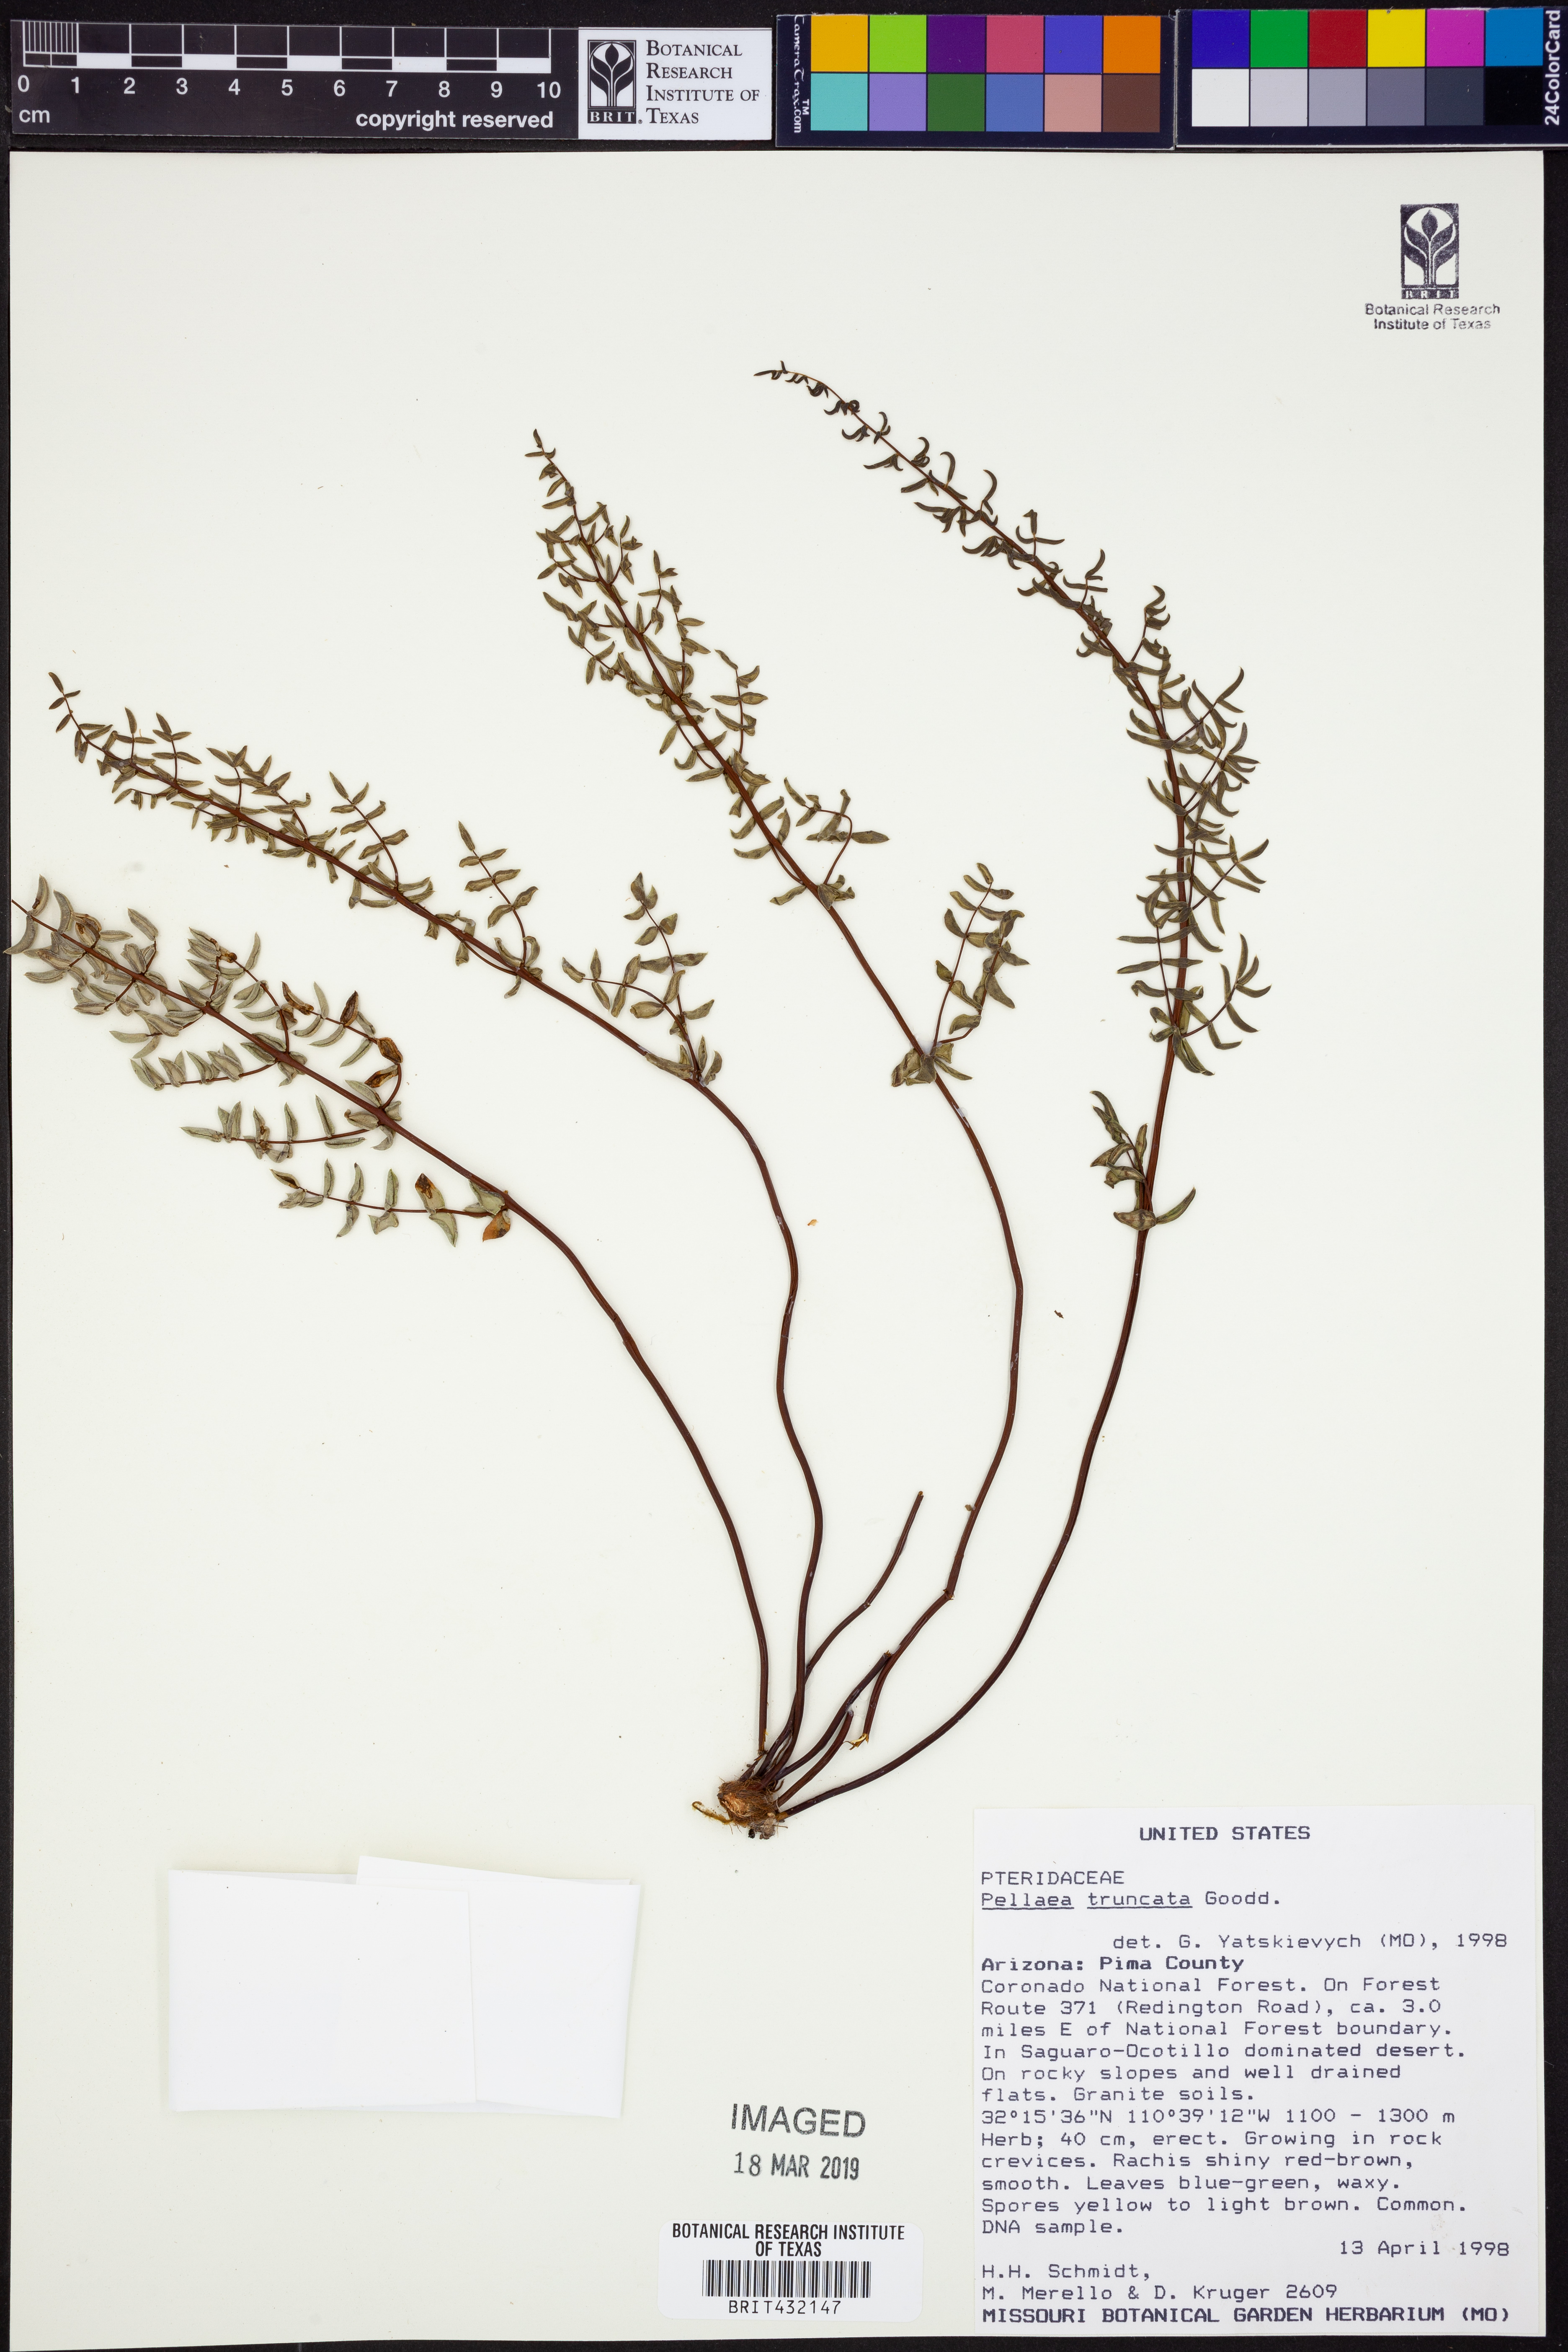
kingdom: Plantae
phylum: Tracheophyta
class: Polypodiopsida
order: Polypodiales
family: Pteridaceae
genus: Pellaea
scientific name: Pellaea truncata
